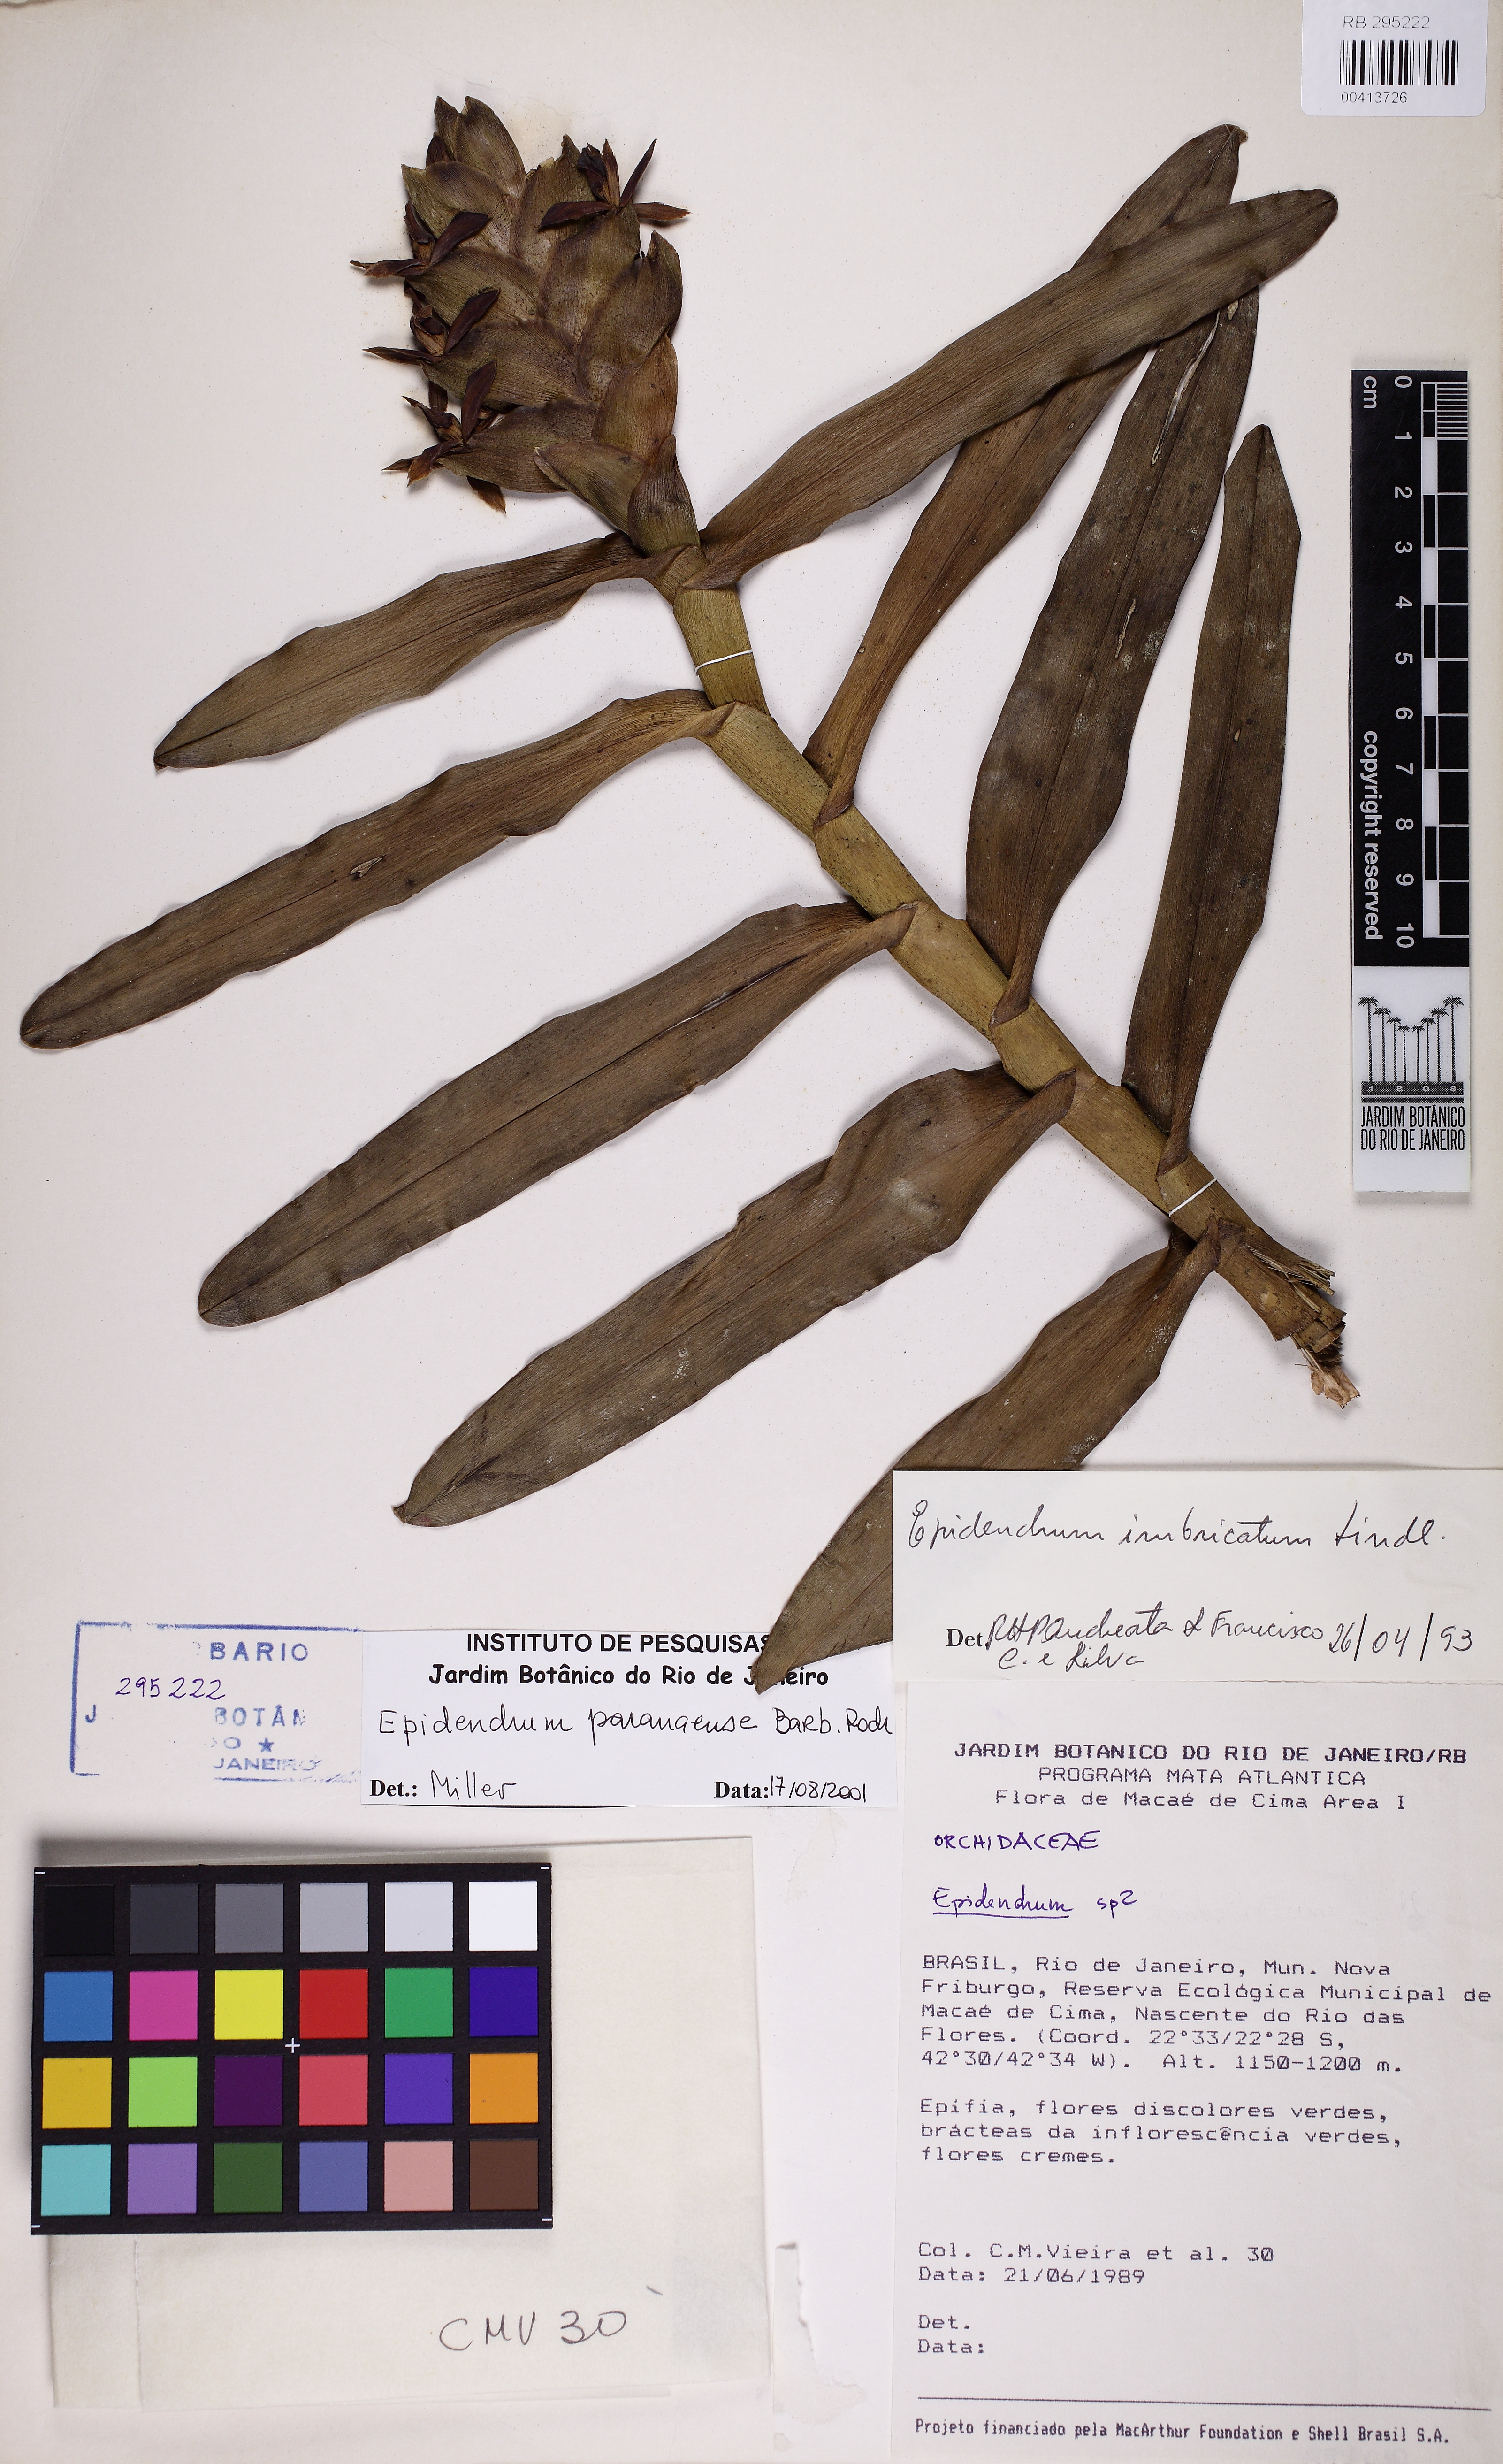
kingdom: Plantae
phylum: Tracheophyta
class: Liliopsida
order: Asparagales
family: Orchidaceae
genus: Epidendrum
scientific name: Epidendrum paranaense
